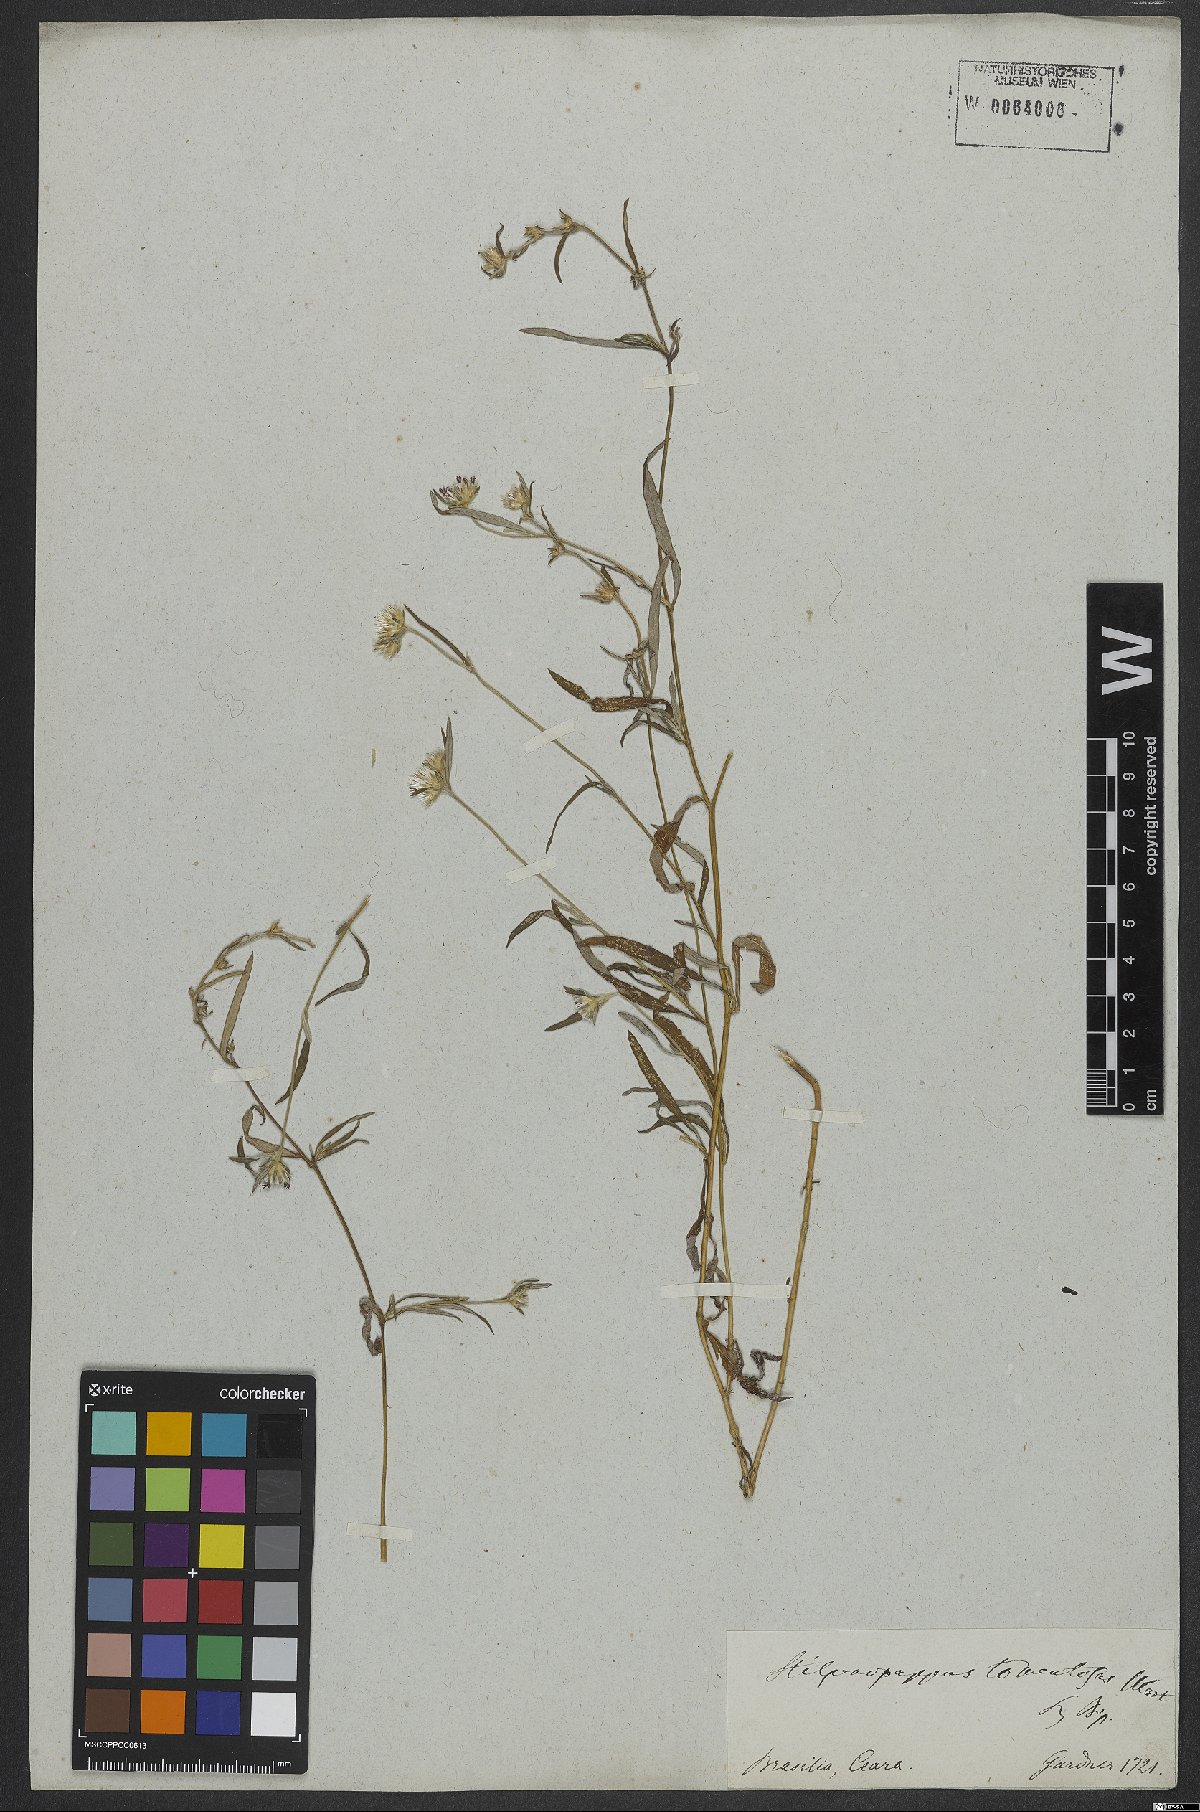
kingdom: Plantae
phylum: Tracheophyta
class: Magnoliopsida
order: Asterales
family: Asteraceae
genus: Stilpnopappus
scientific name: Stilpnopappus tomentosus
